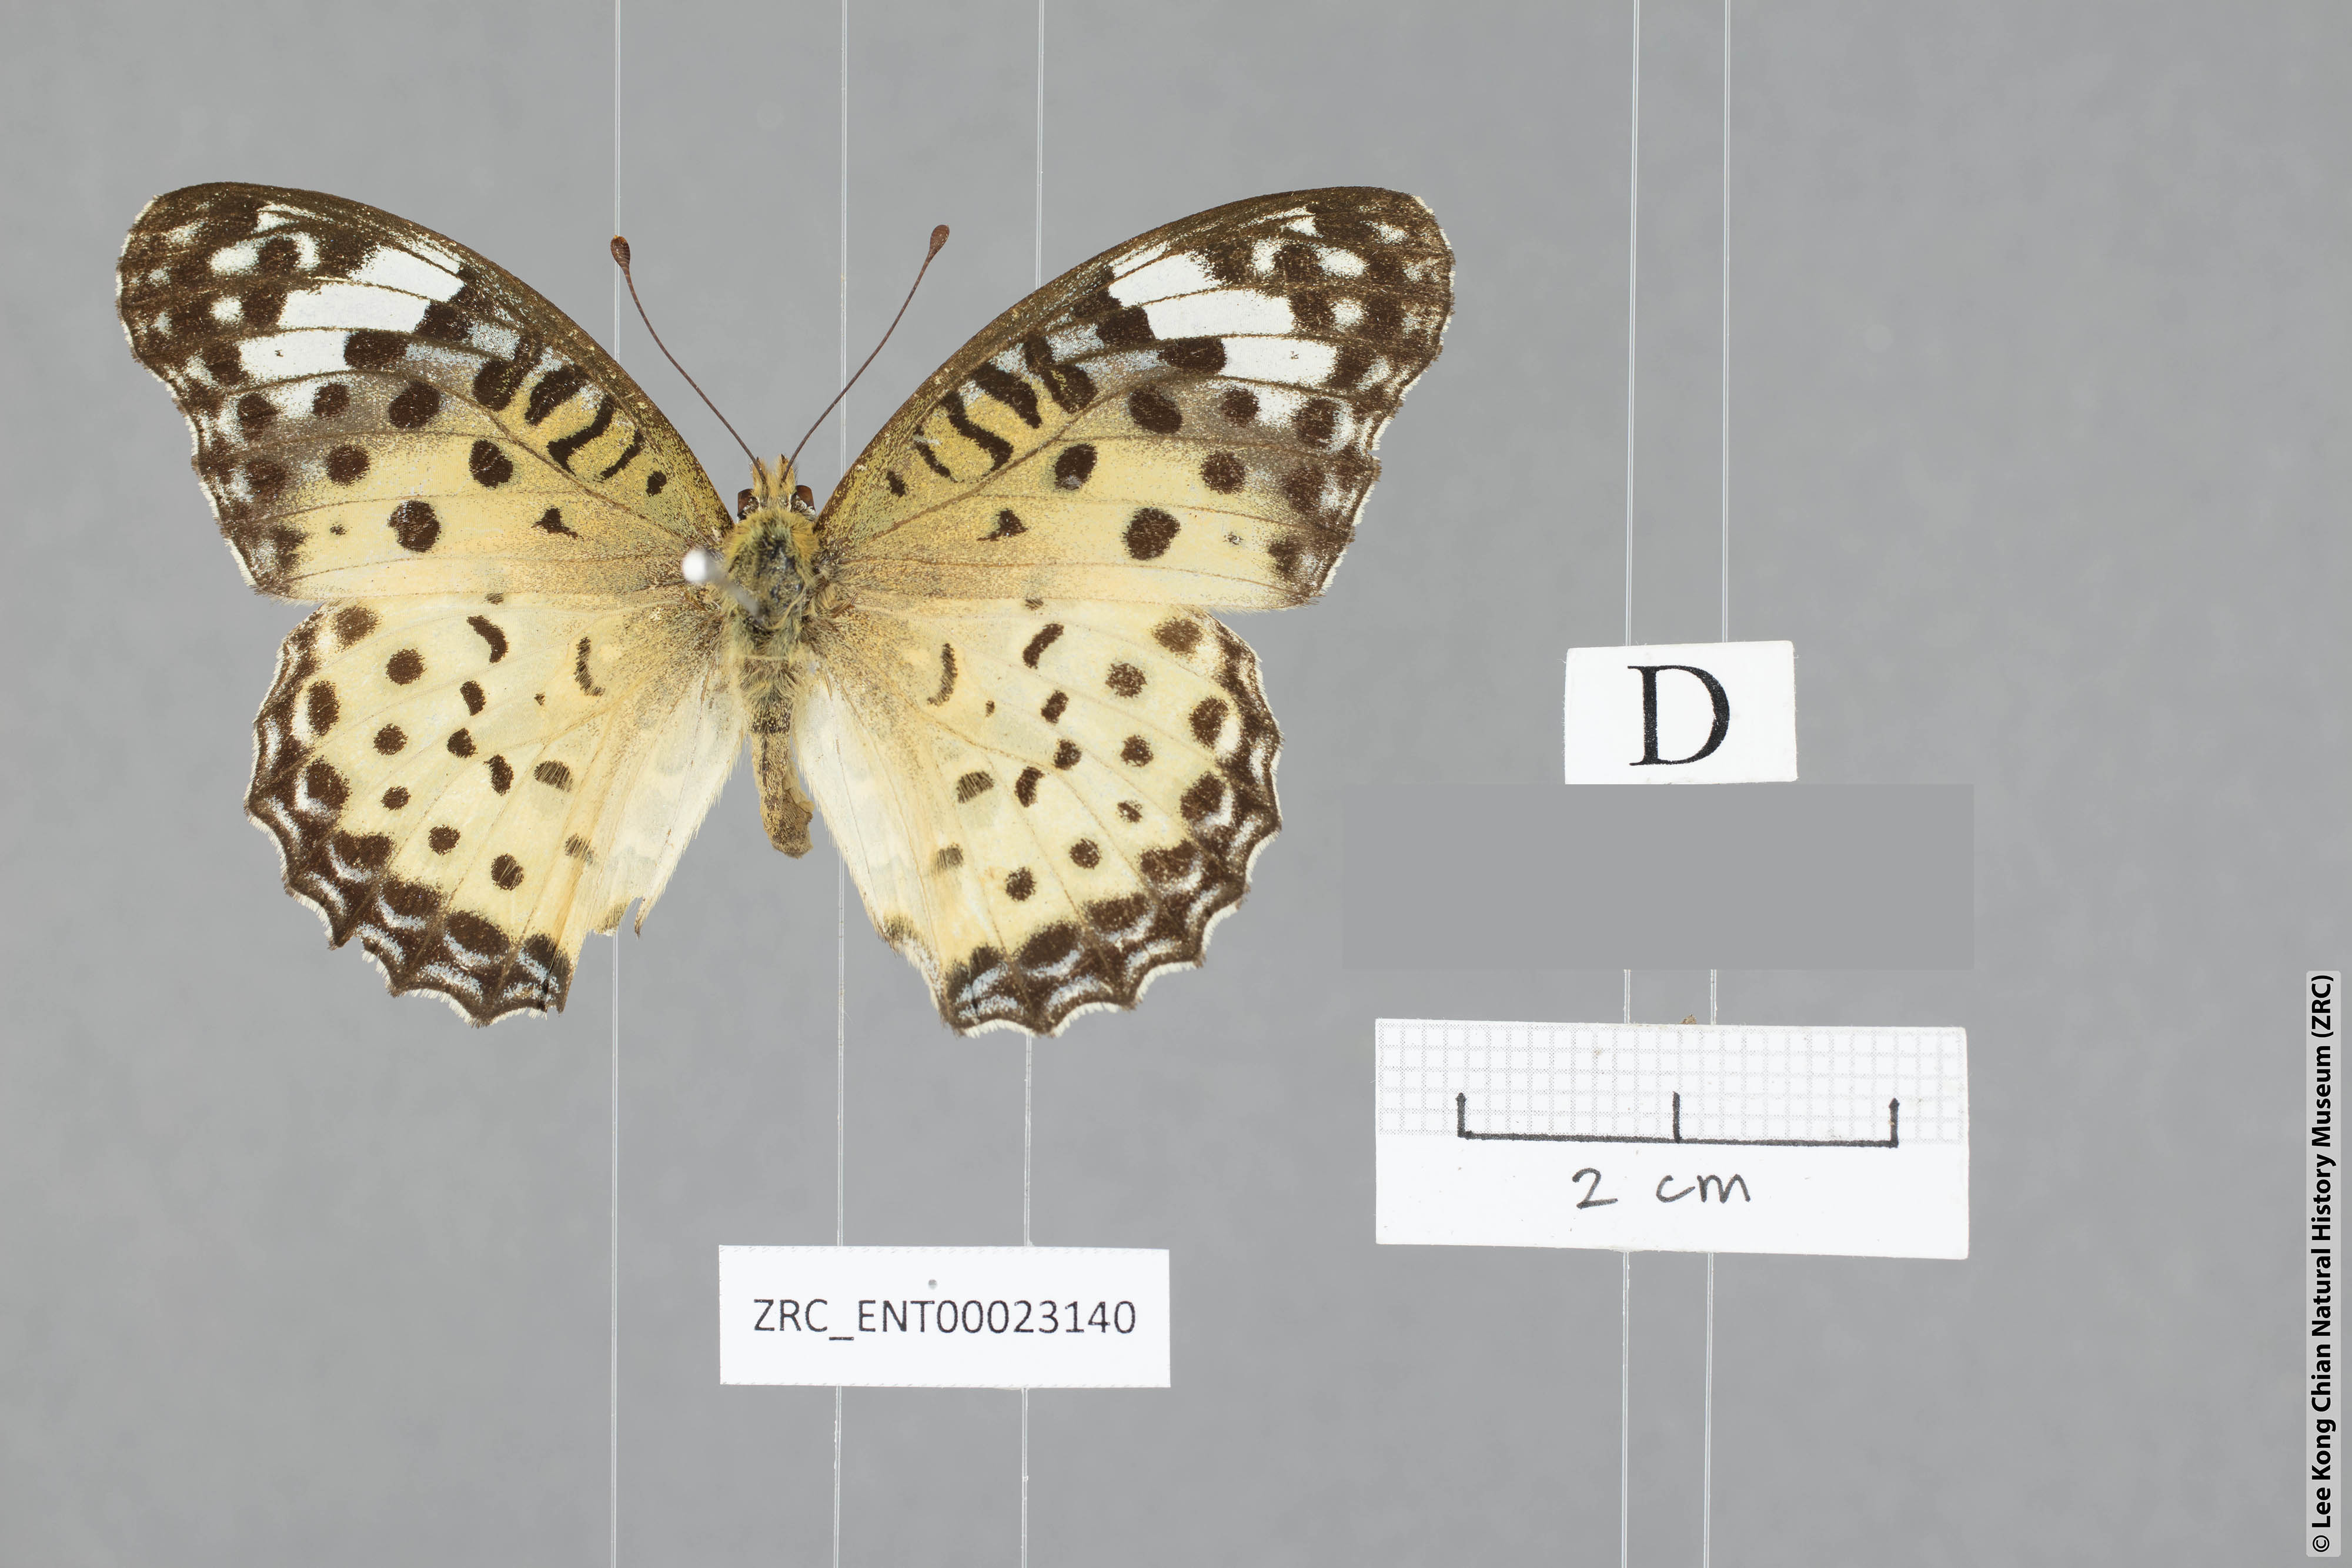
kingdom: Animalia
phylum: Arthropoda
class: Insecta
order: Lepidoptera
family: Nymphalidae
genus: Argyreus
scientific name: Argyreus hyperbius
